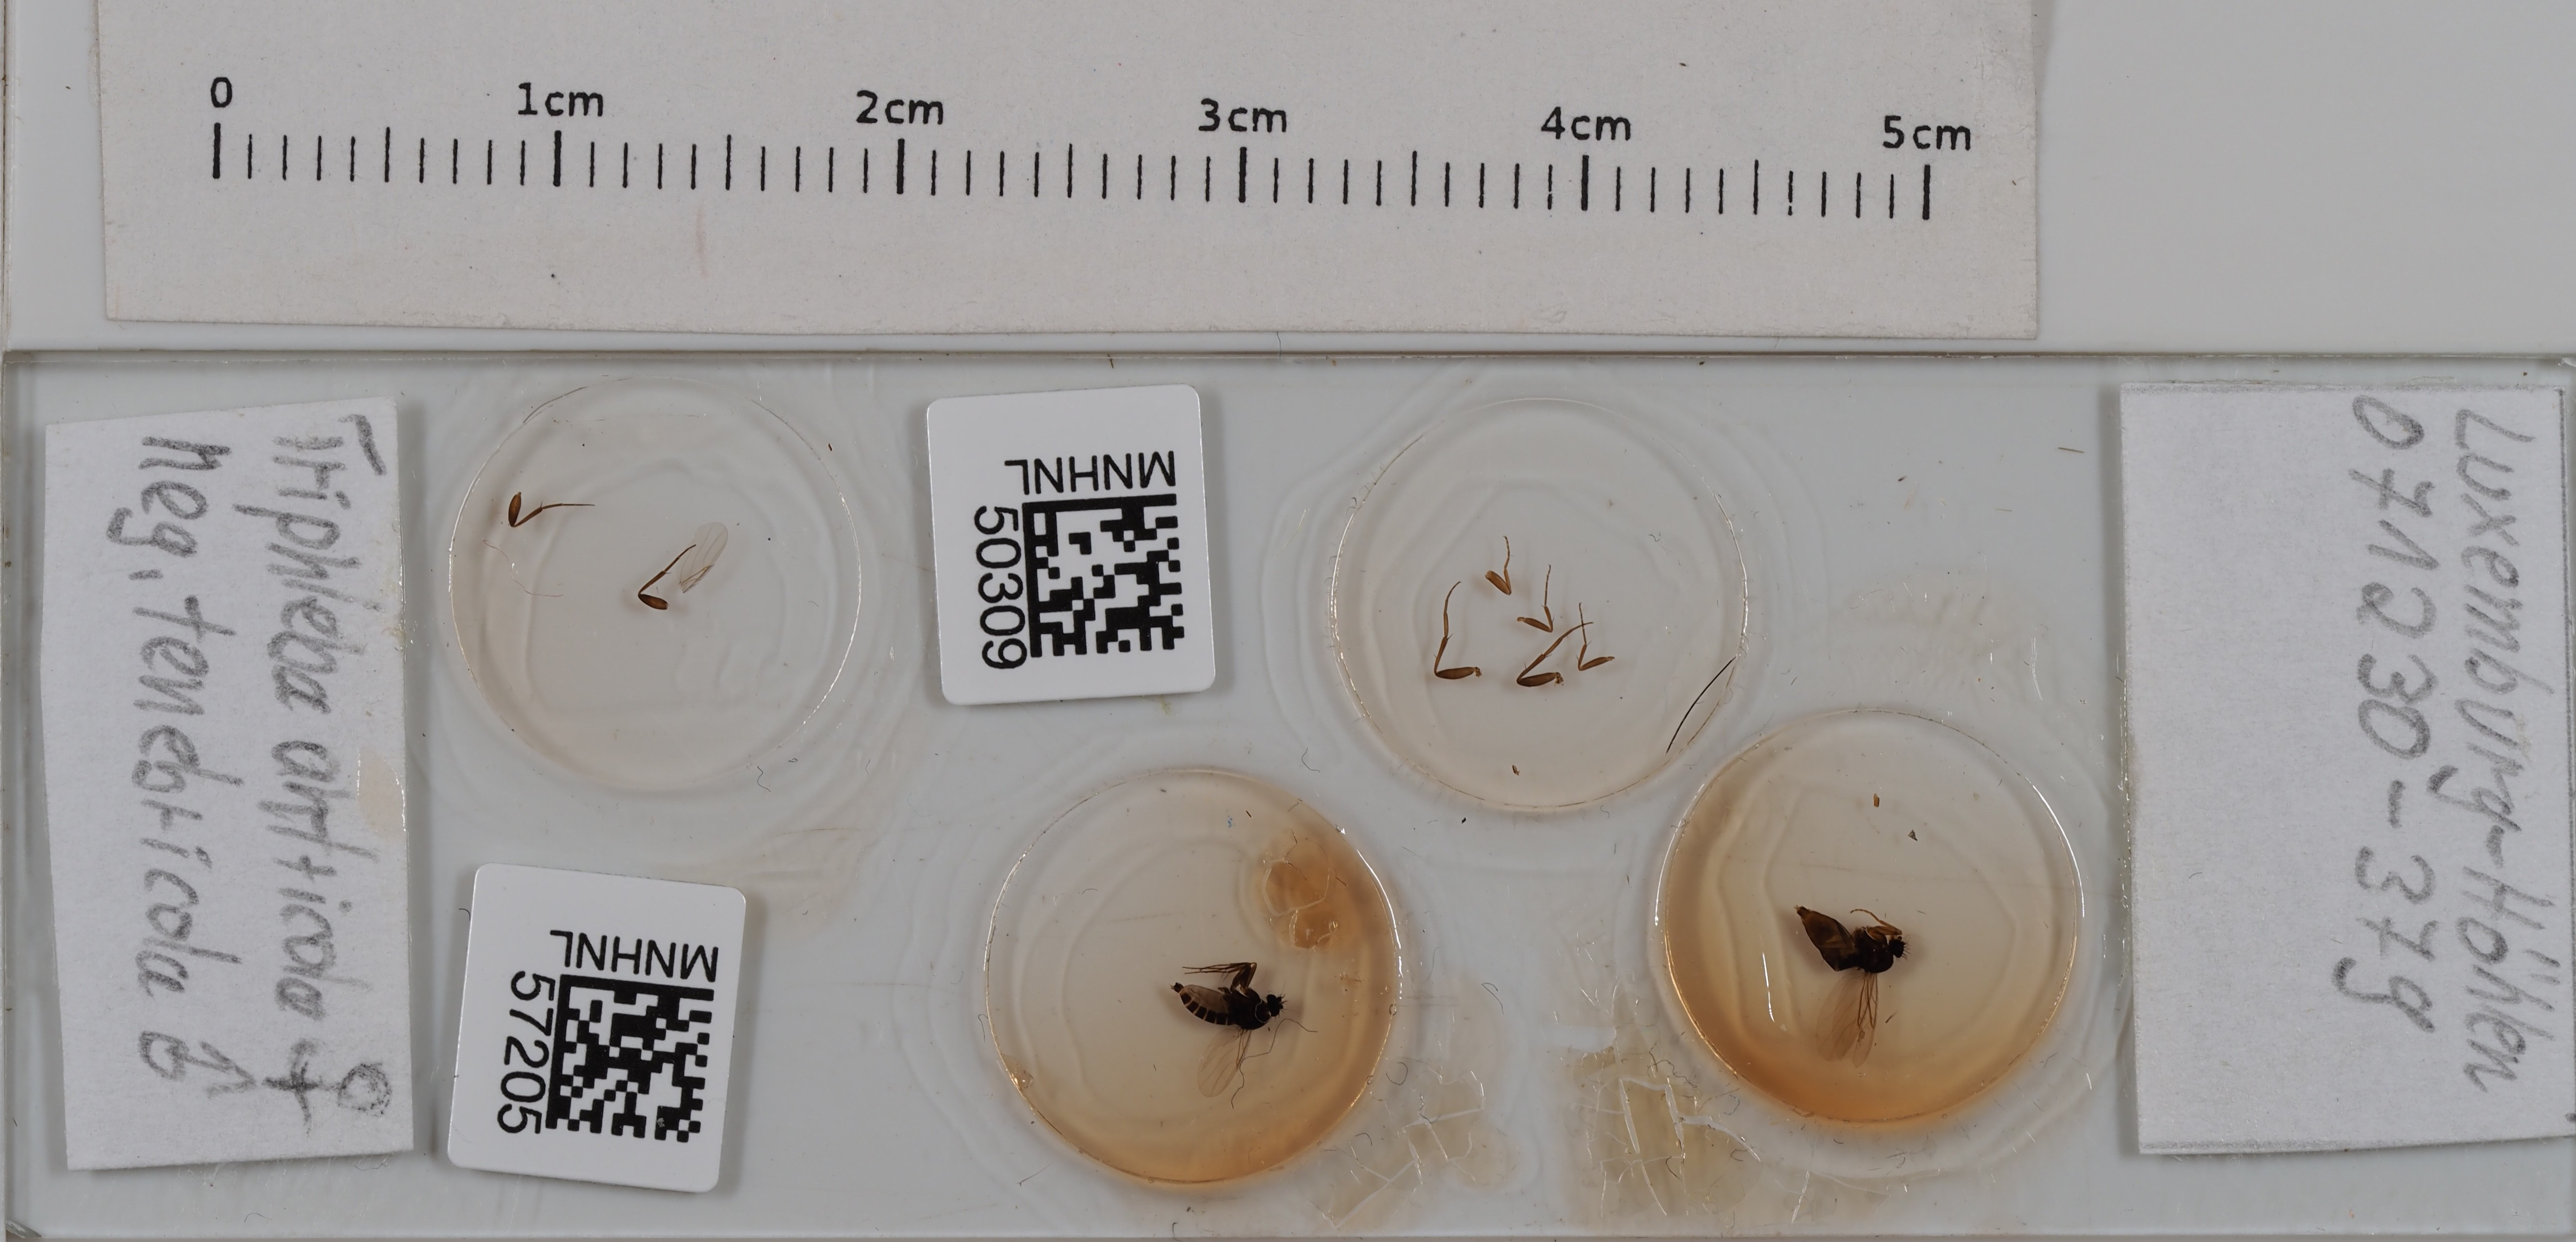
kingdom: Animalia
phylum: Arthropoda
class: Insecta
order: Diptera
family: Phoridae
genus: Triphleba
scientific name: Triphleba antricola
